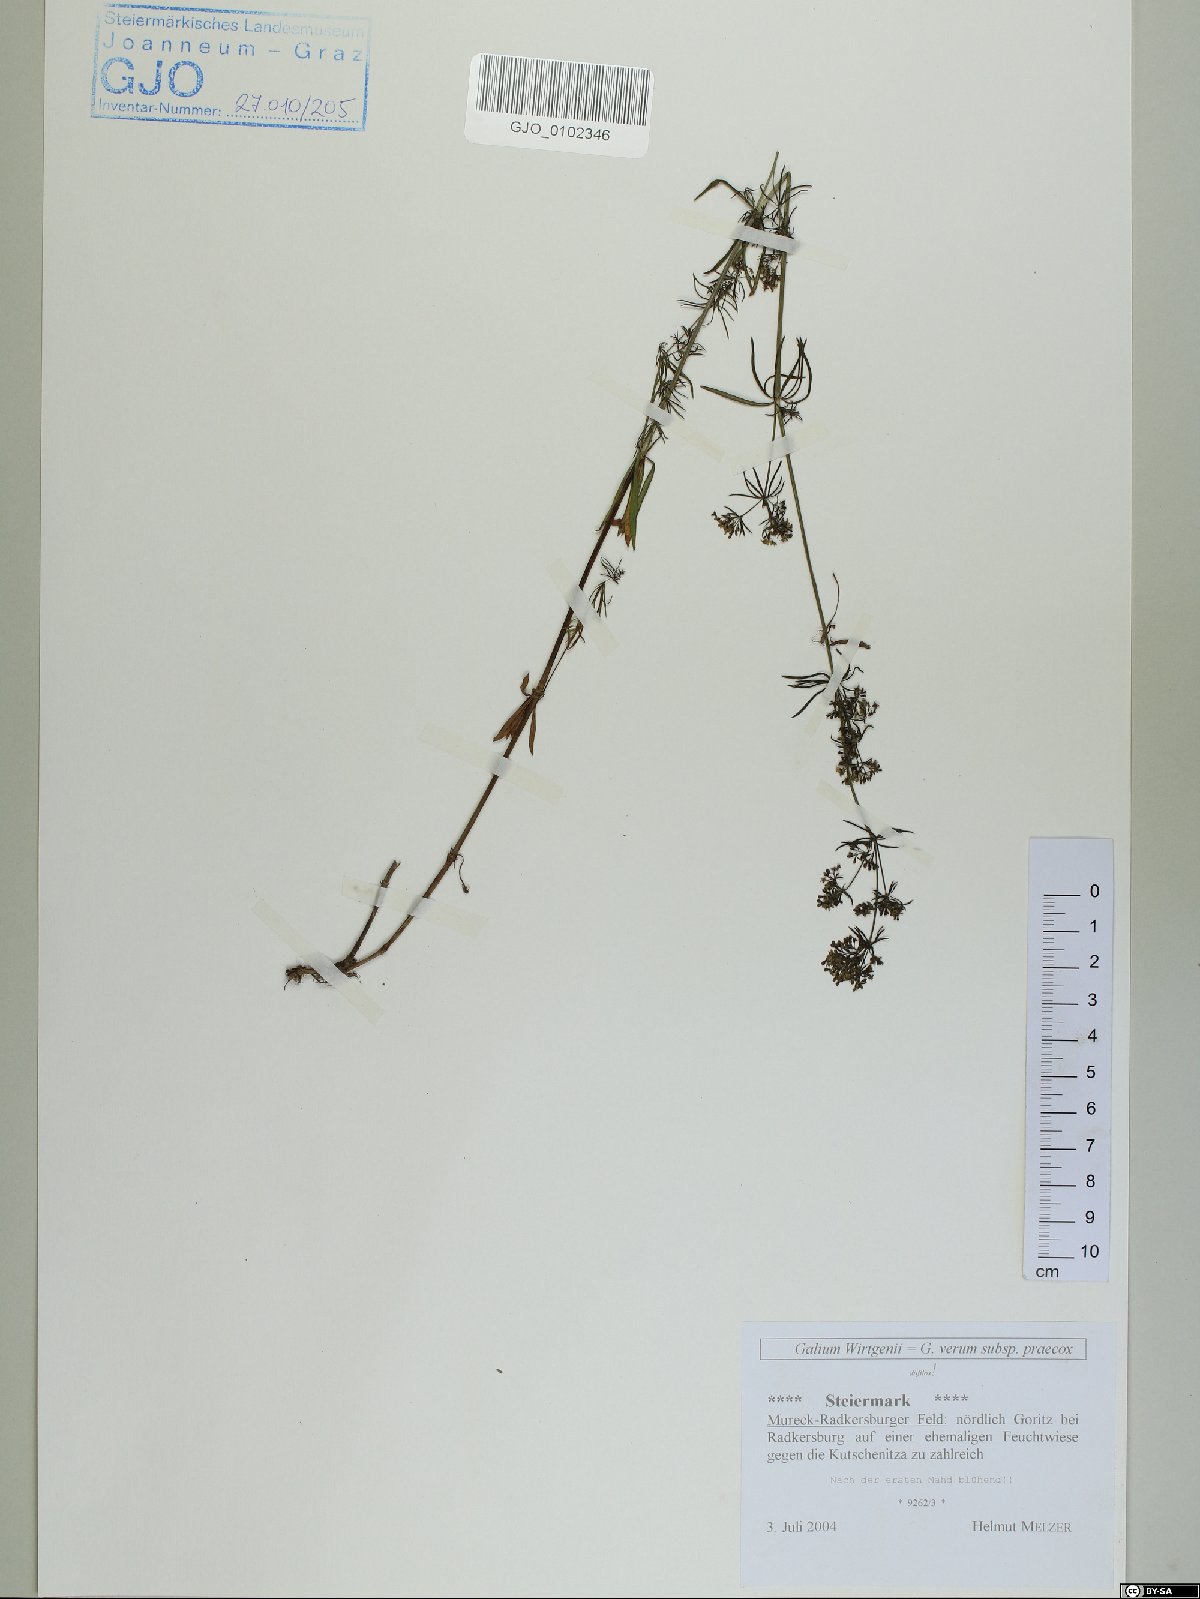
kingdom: Plantae
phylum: Tracheophyta
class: Magnoliopsida
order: Gentianales
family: Rubiaceae
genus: Galium
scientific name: Galium verum
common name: Lady's bedstraw
